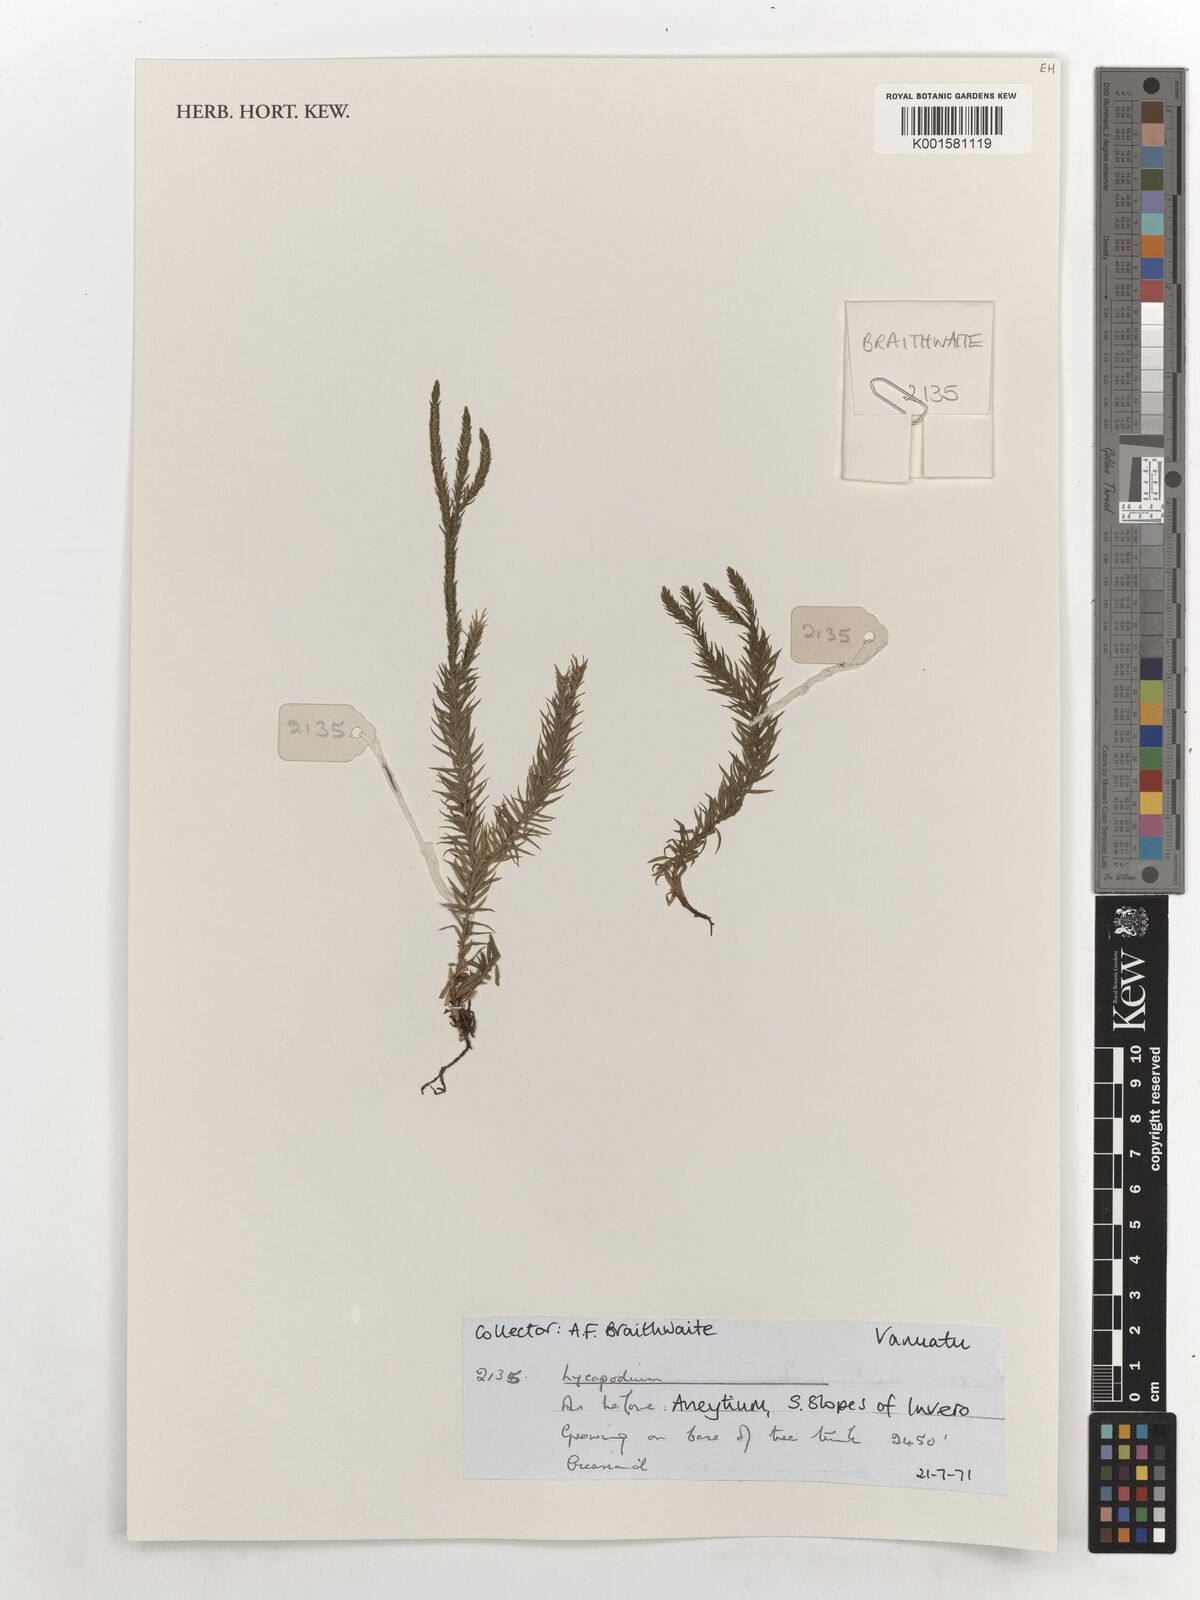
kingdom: Plantae
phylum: Tracheophyta
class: Lycopodiopsida
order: Lycopodiales
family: Lycopodiaceae
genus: Lycopodium
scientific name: Lycopodium
